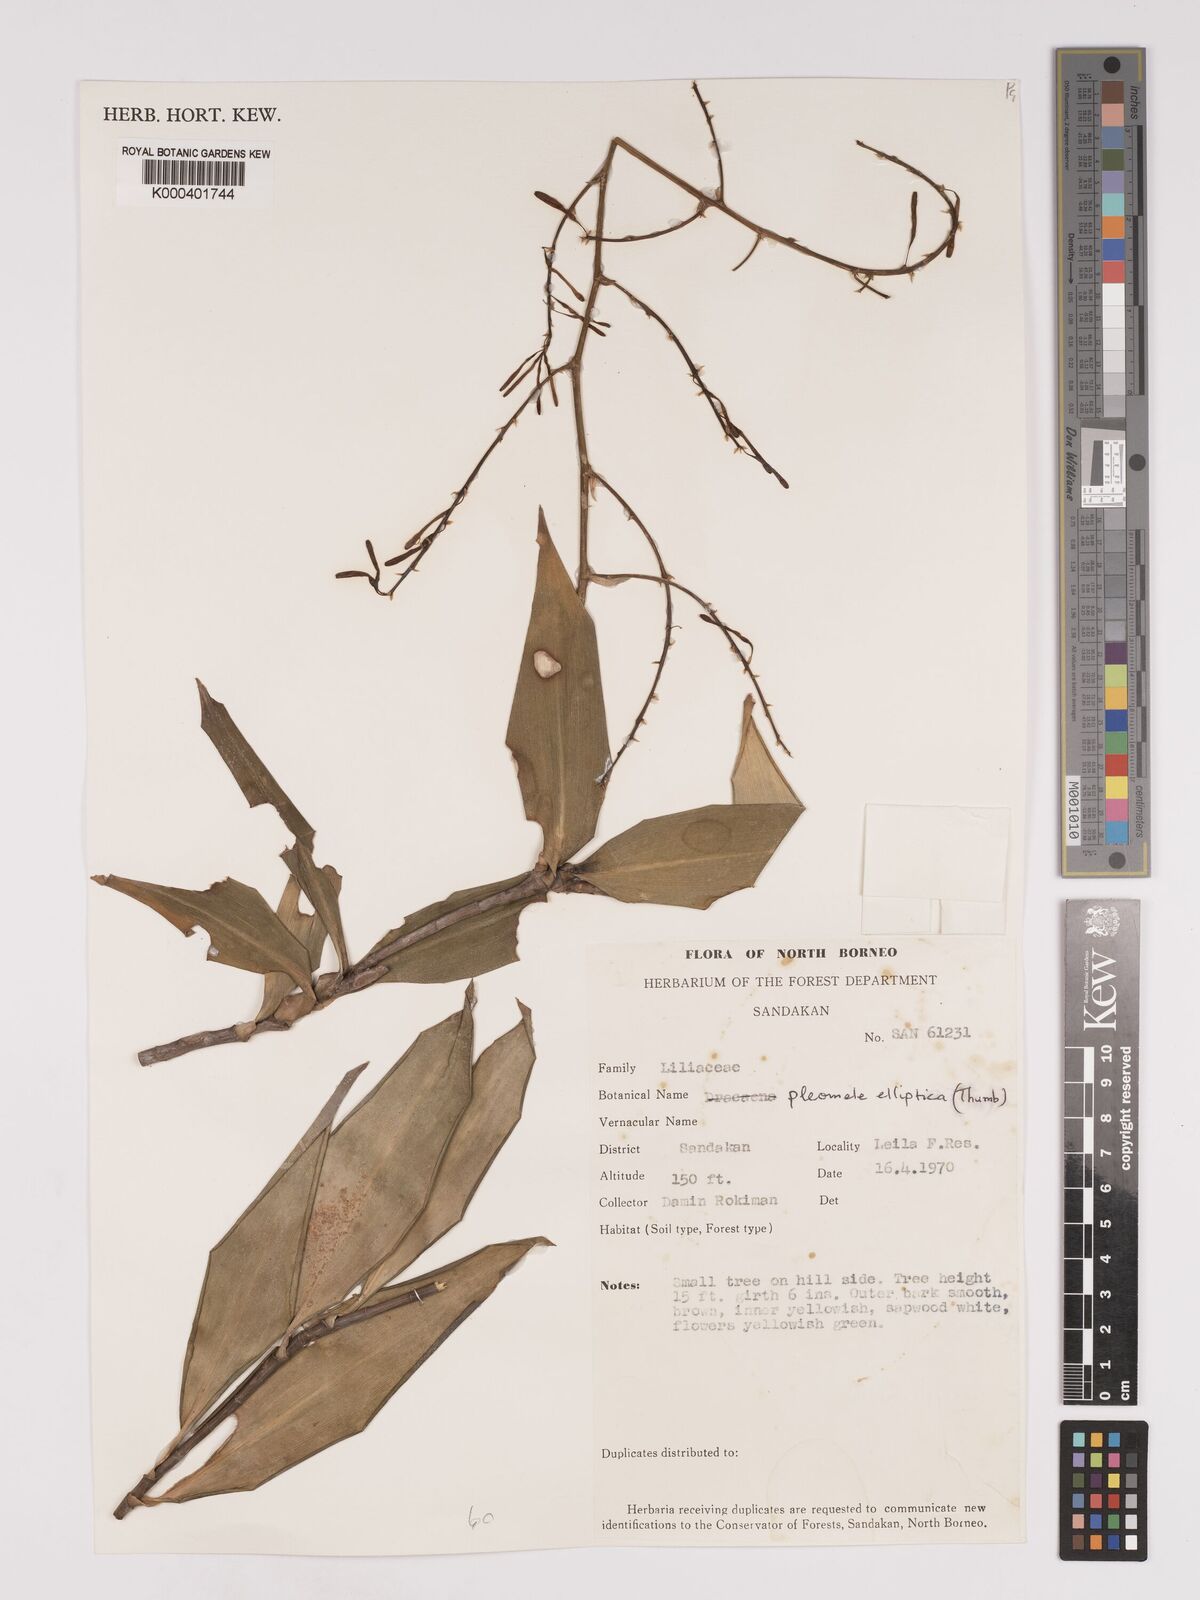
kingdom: Plantae
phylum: Tracheophyta
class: Liliopsida
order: Asparagales
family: Asparagaceae
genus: Dracaena
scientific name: Dracaena elliptica
